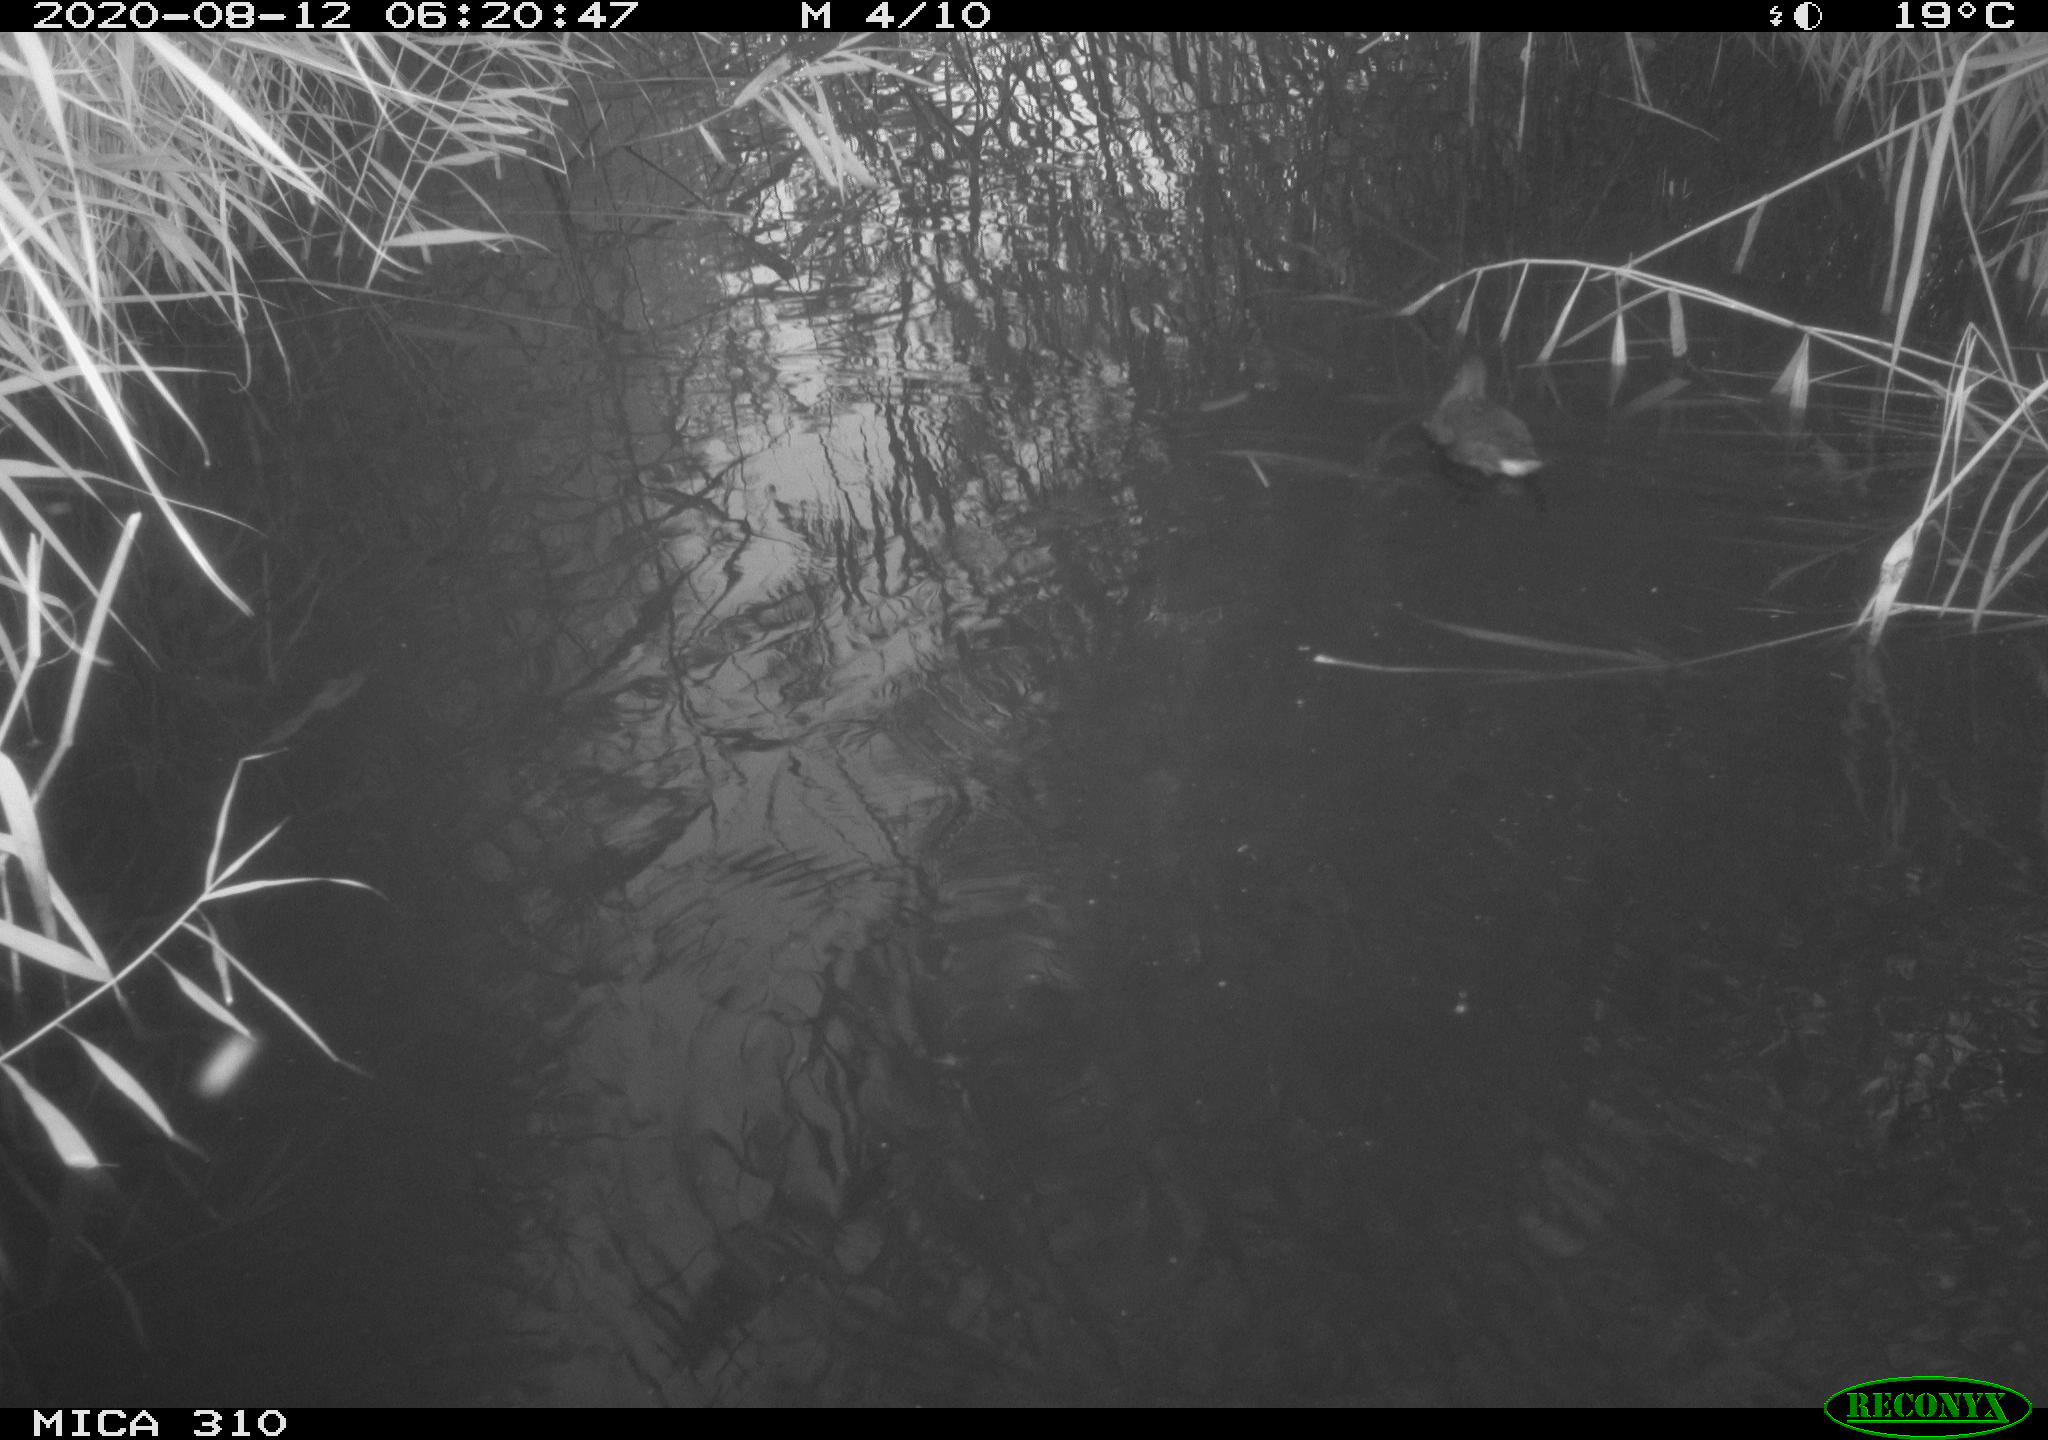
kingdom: Animalia
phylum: Chordata
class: Aves
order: Gruiformes
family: Rallidae
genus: Fulica
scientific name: Fulica atra
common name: Eurasian coot
